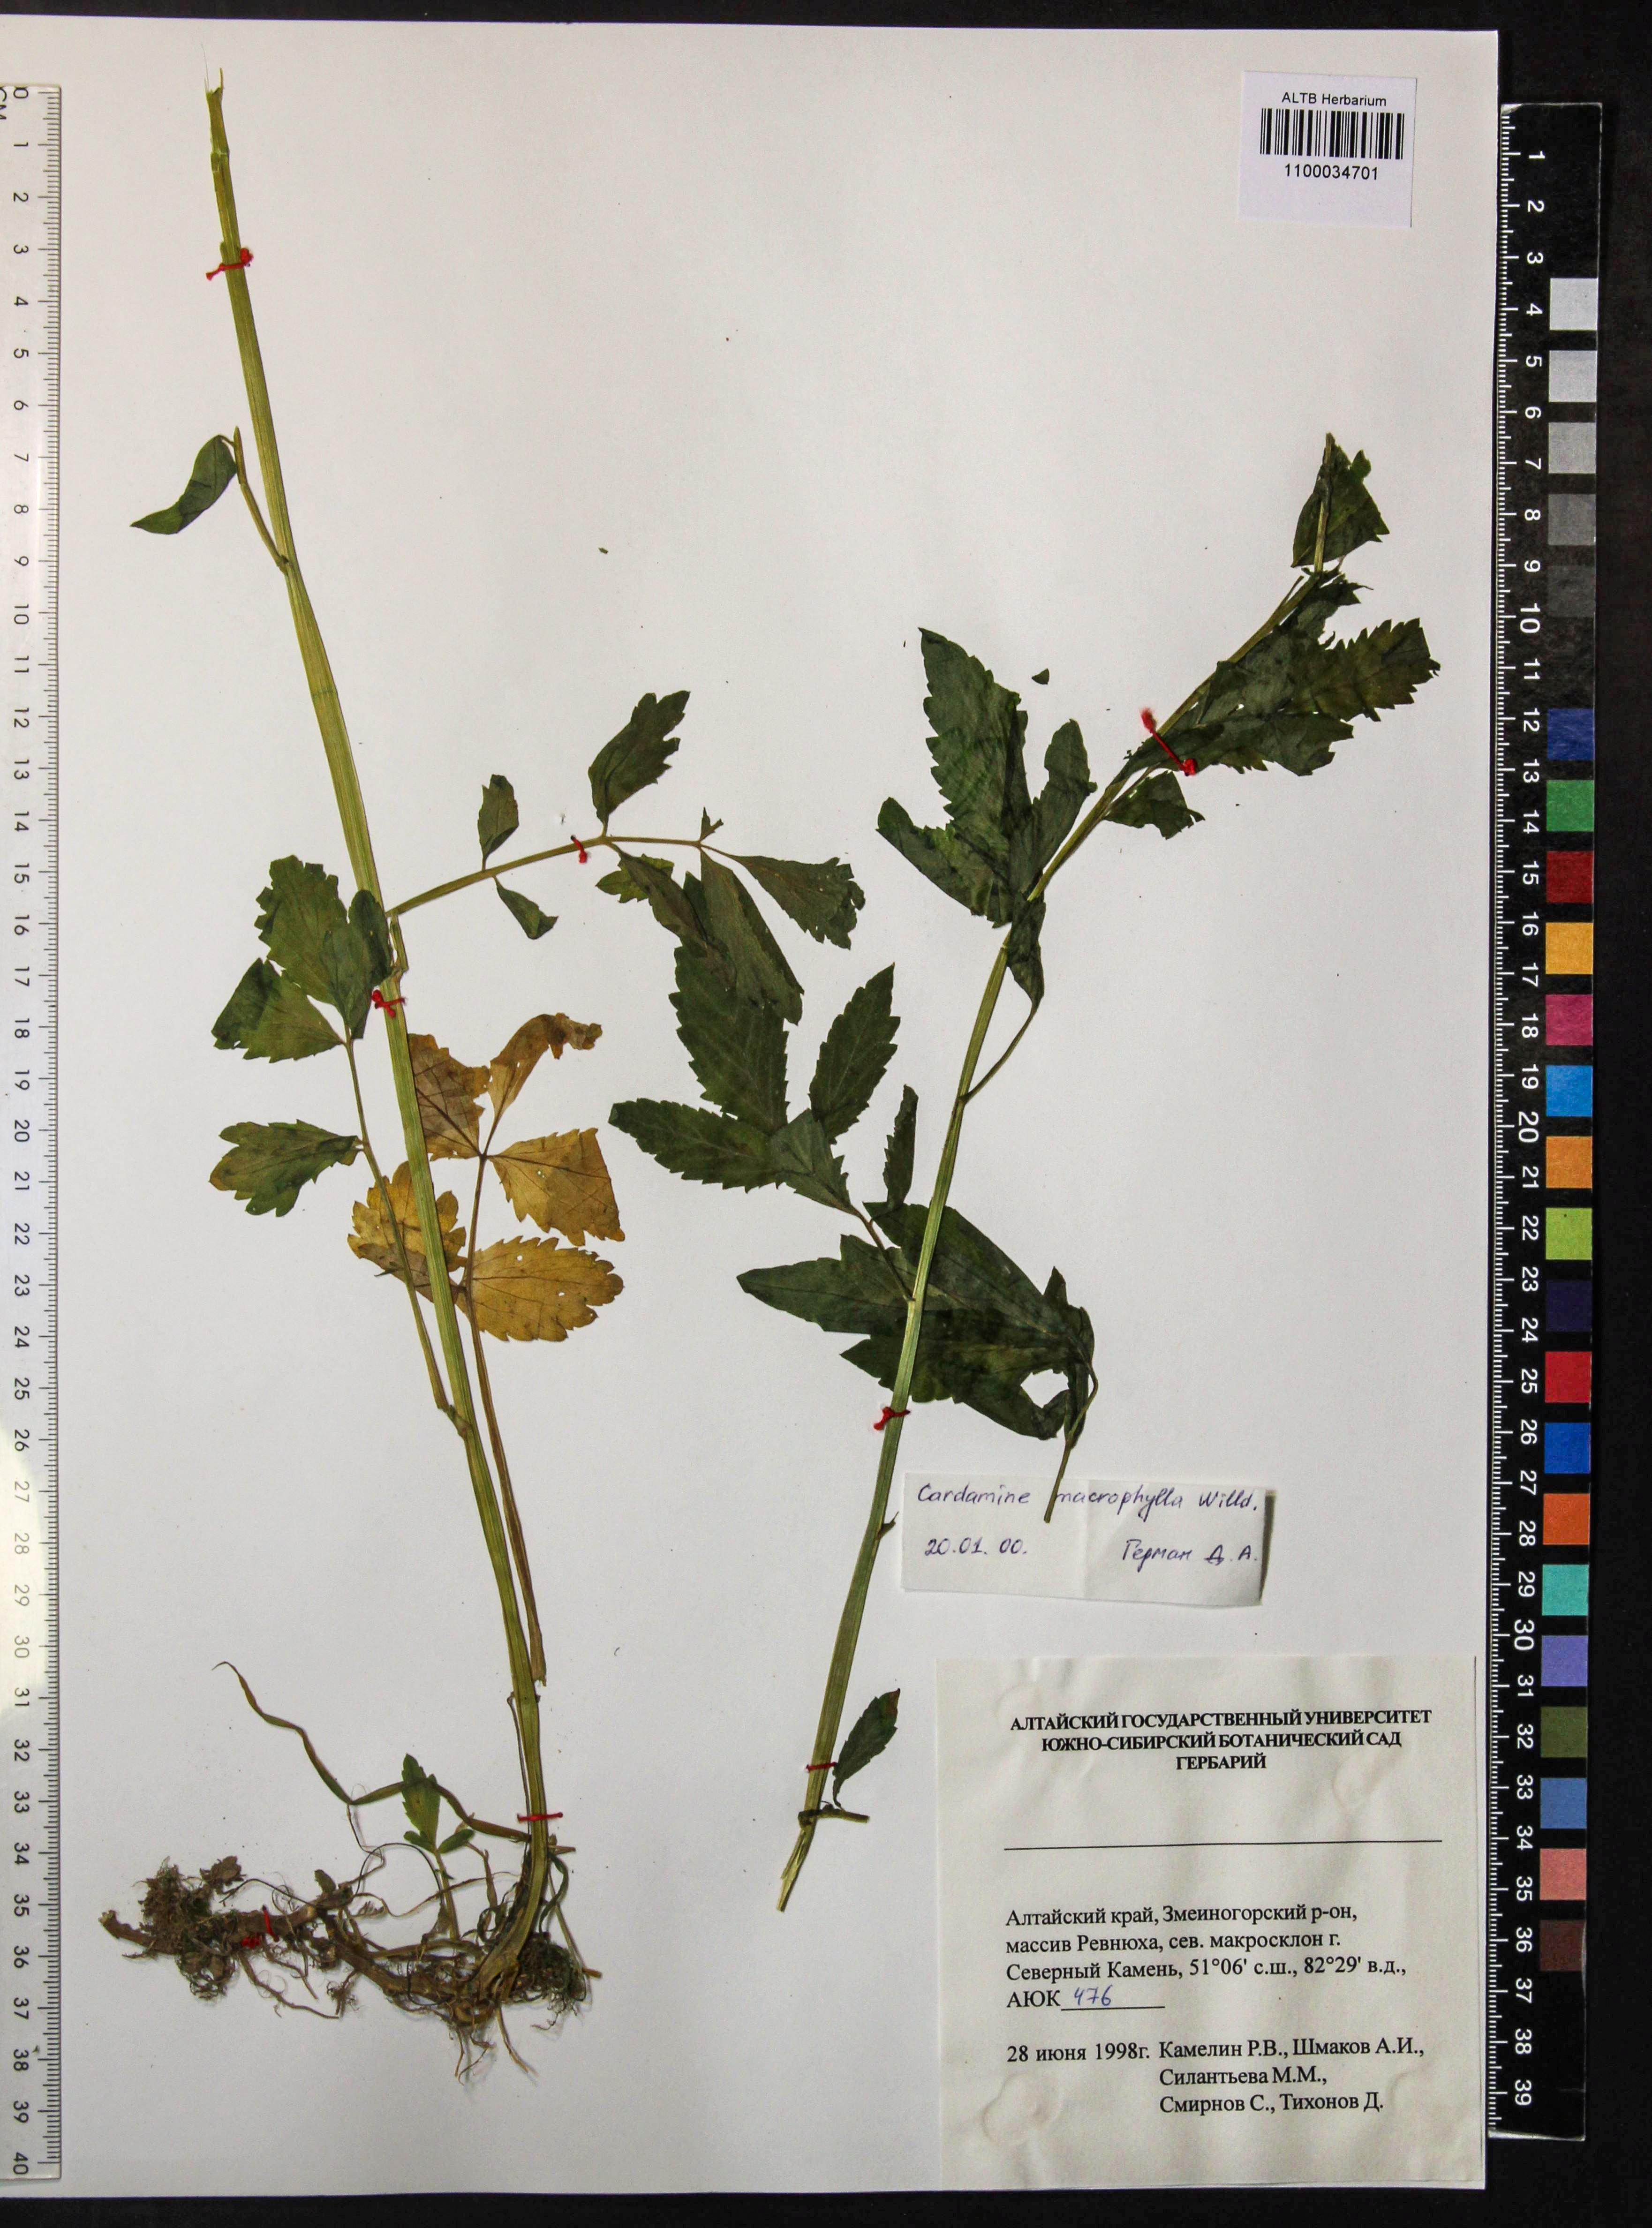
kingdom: Plantae
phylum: Tracheophyta
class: Magnoliopsida
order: Brassicales
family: Brassicaceae
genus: Cardamine
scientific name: Cardamine macrophylla
